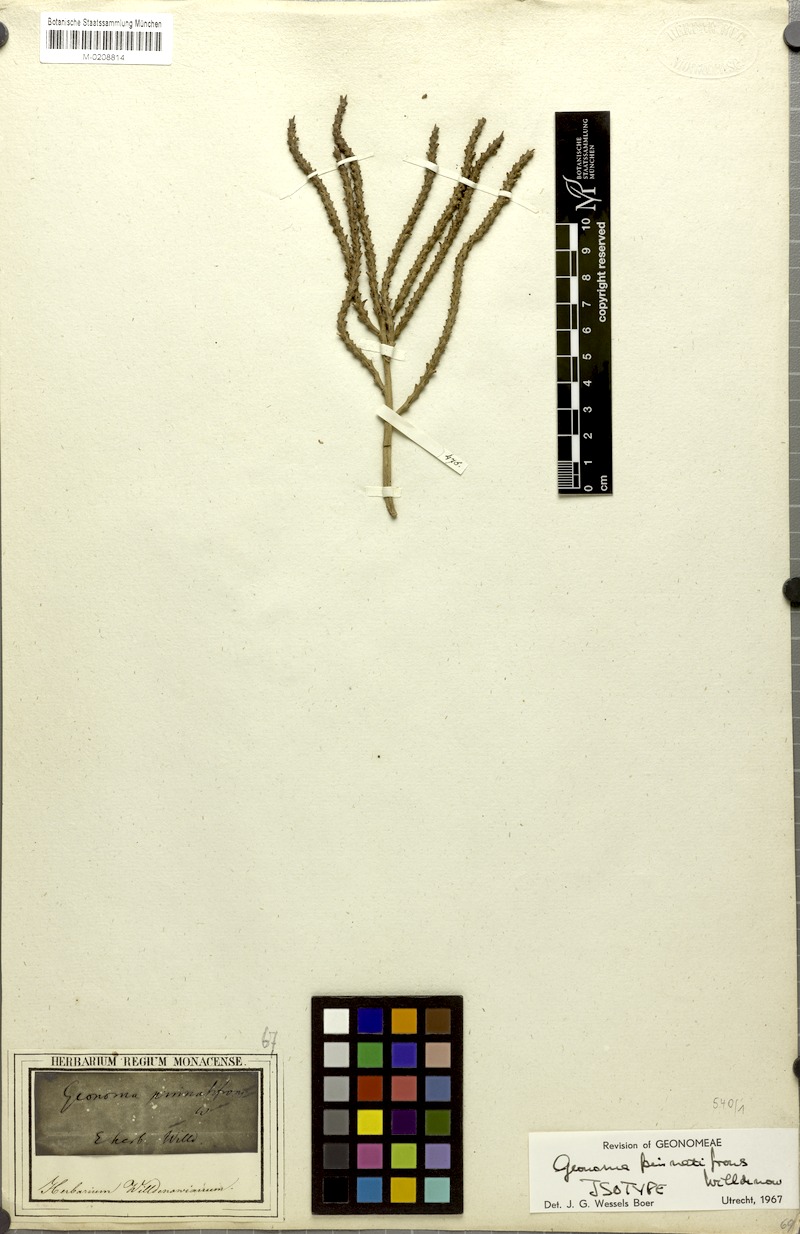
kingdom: Plantae
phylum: Tracheophyta
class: Liliopsida
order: Arecales
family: Arecaceae
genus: Geonoma
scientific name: Geonoma pinnatifrons
